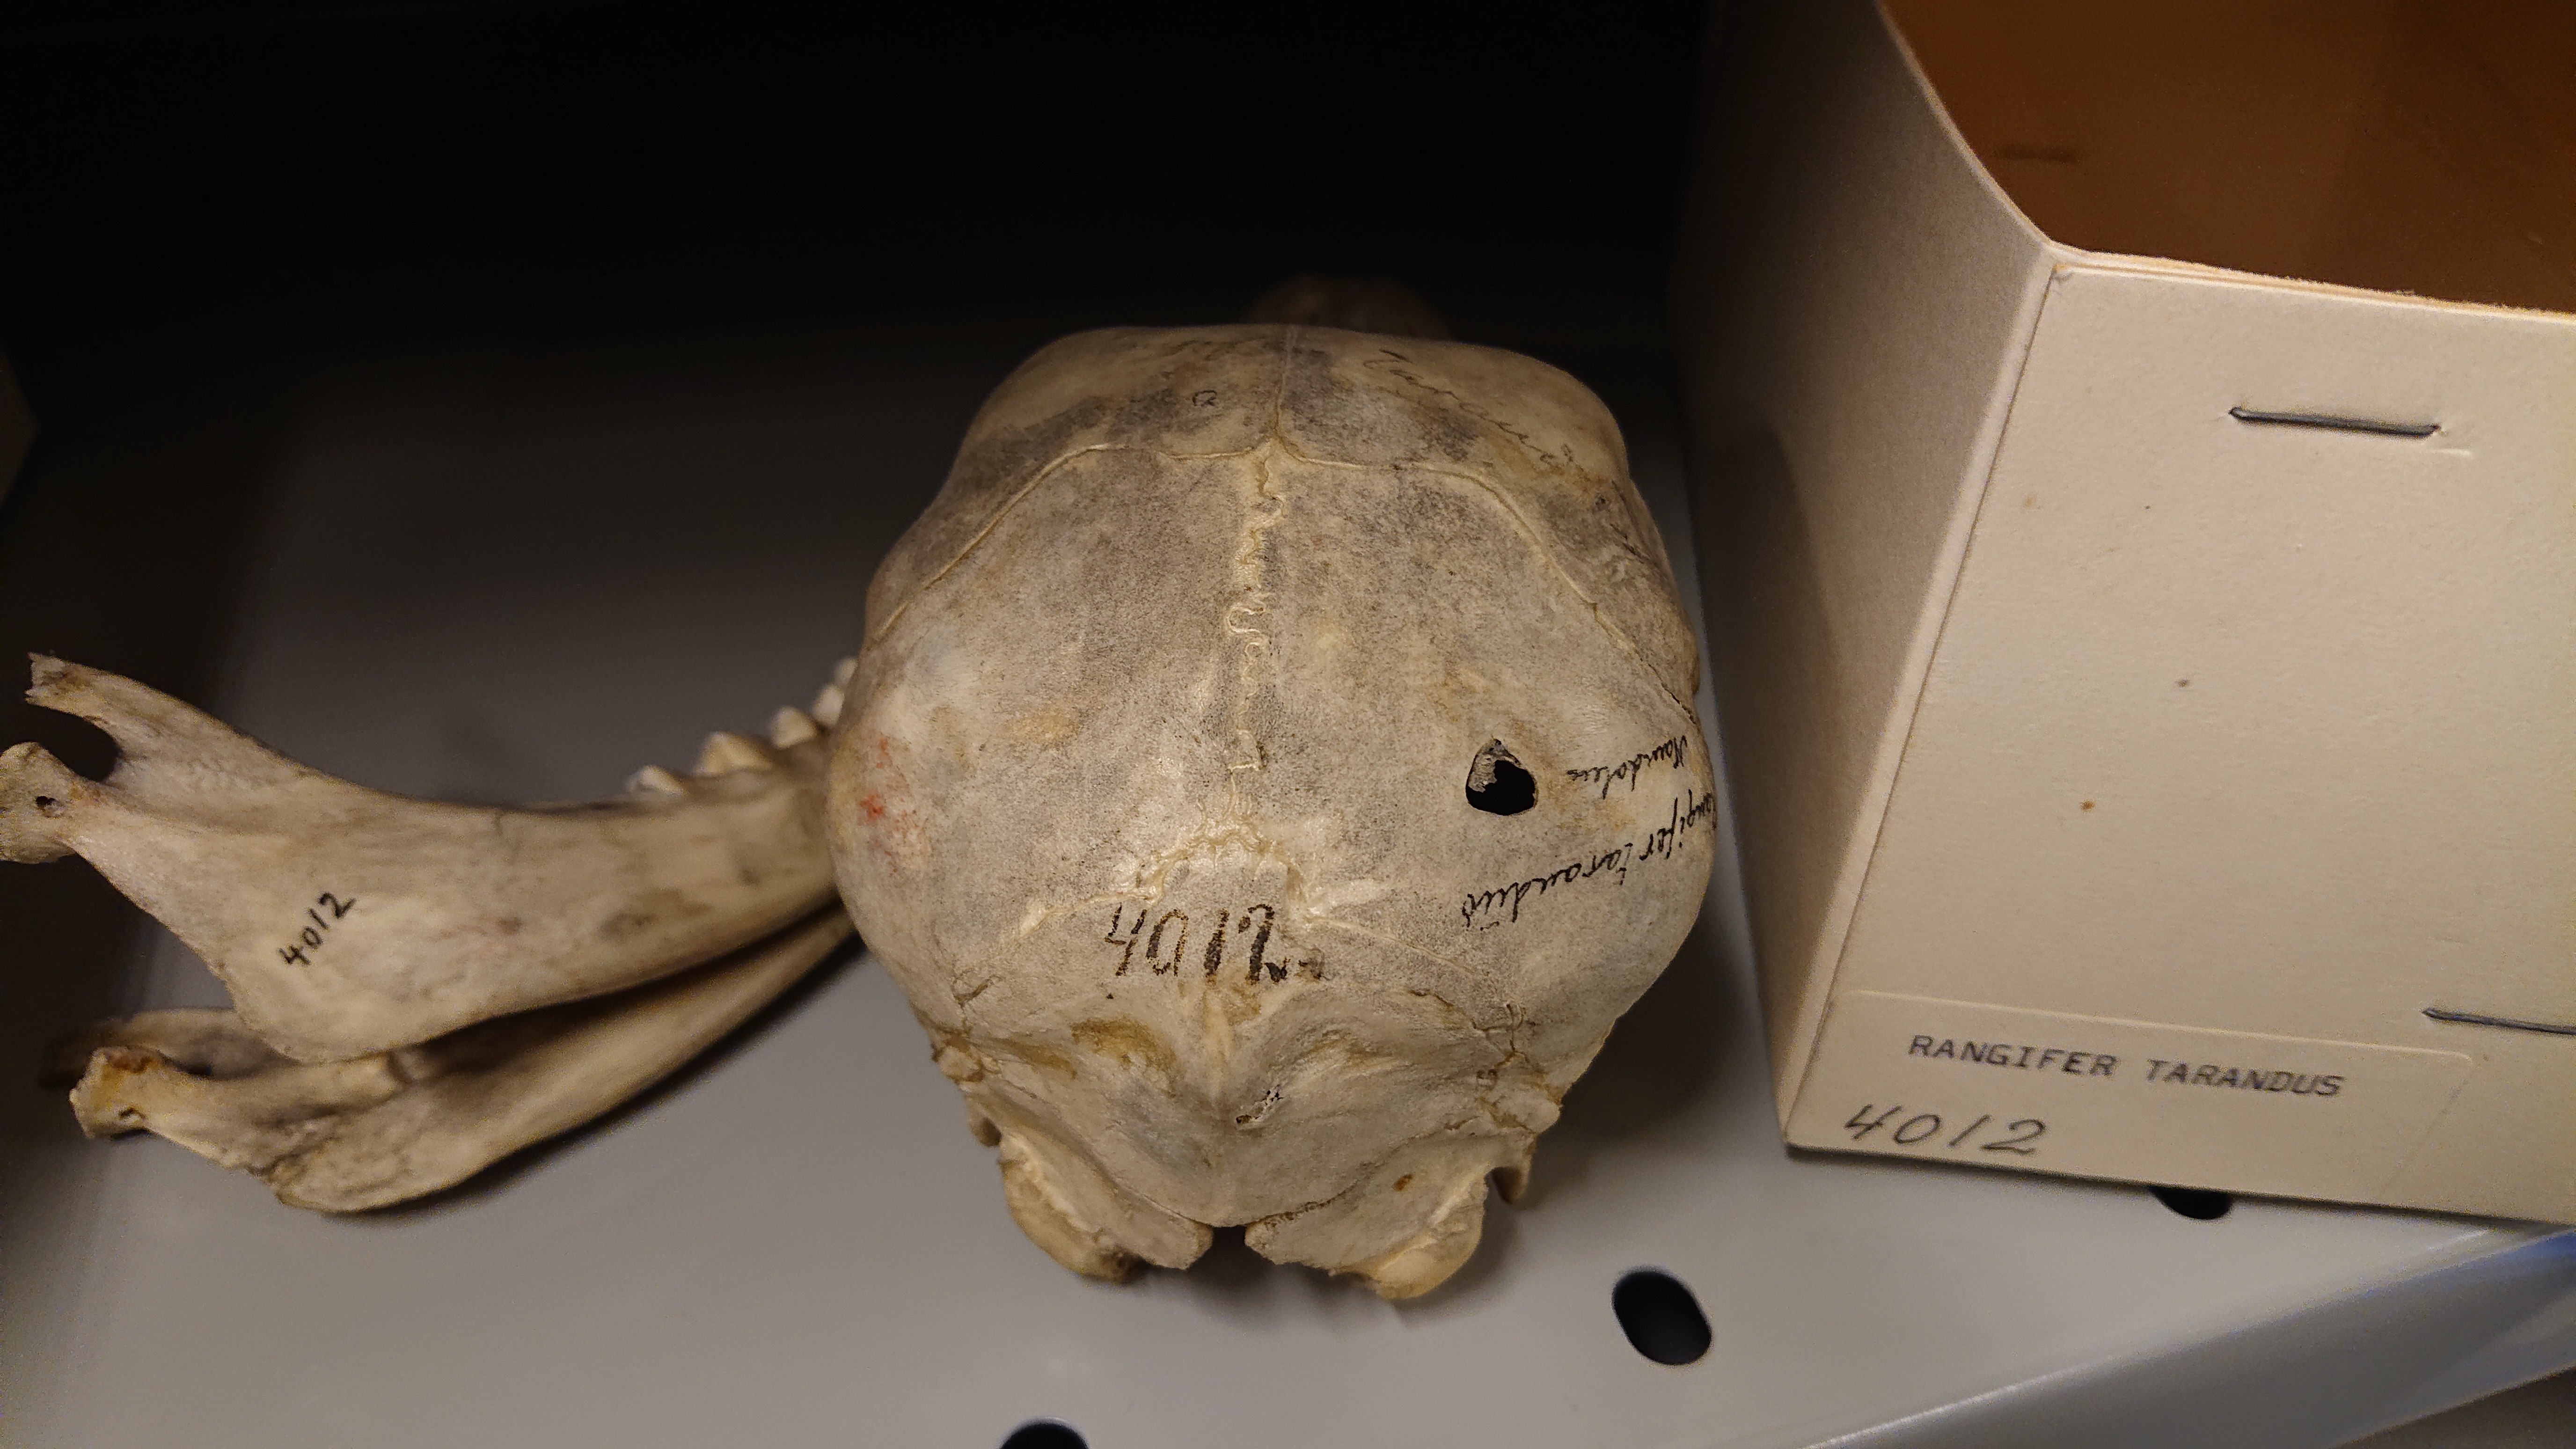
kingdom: Animalia
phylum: Chordata
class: Mammalia
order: Artiodactyla
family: Cervidae
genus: Rangifer
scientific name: Rangifer tarandus
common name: Reindeer
